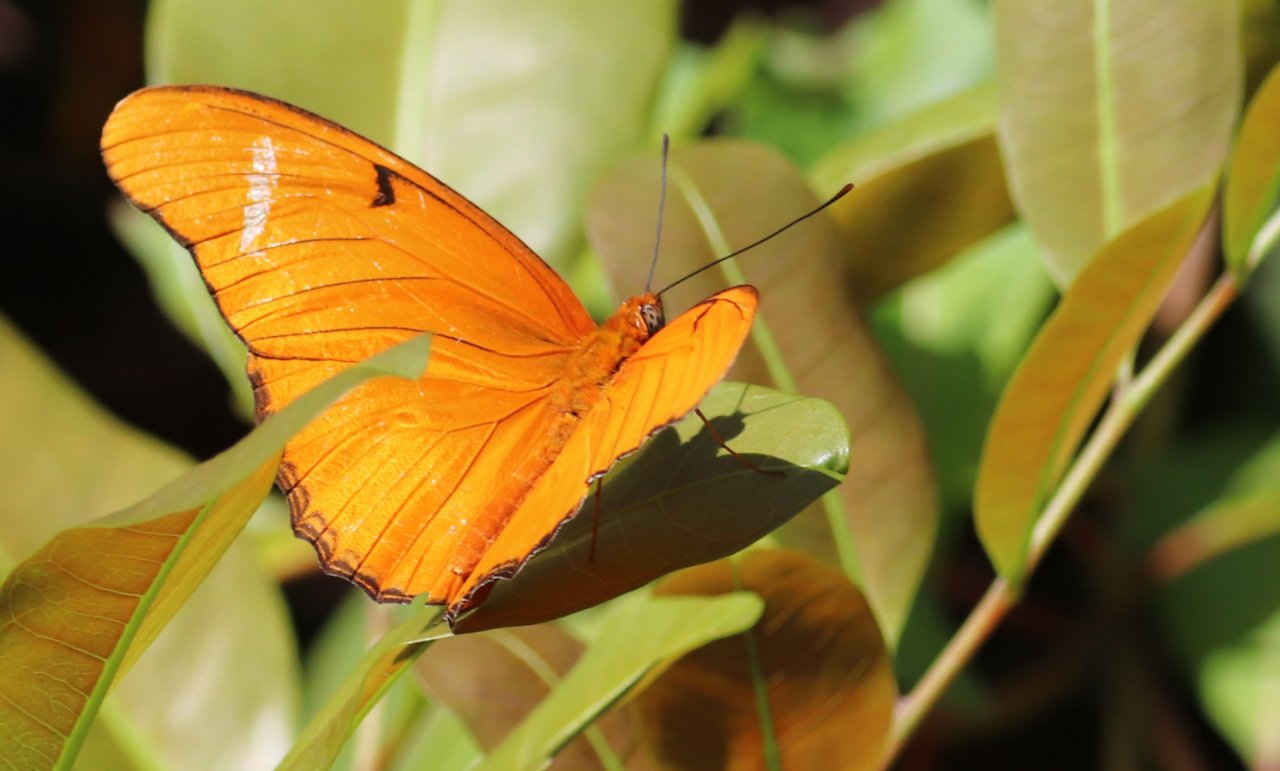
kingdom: Animalia
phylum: Arthropoda
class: Insecta
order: Lepidoptera
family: Nymphalidae
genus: Dryas
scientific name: Dryas iulia
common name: Julia
